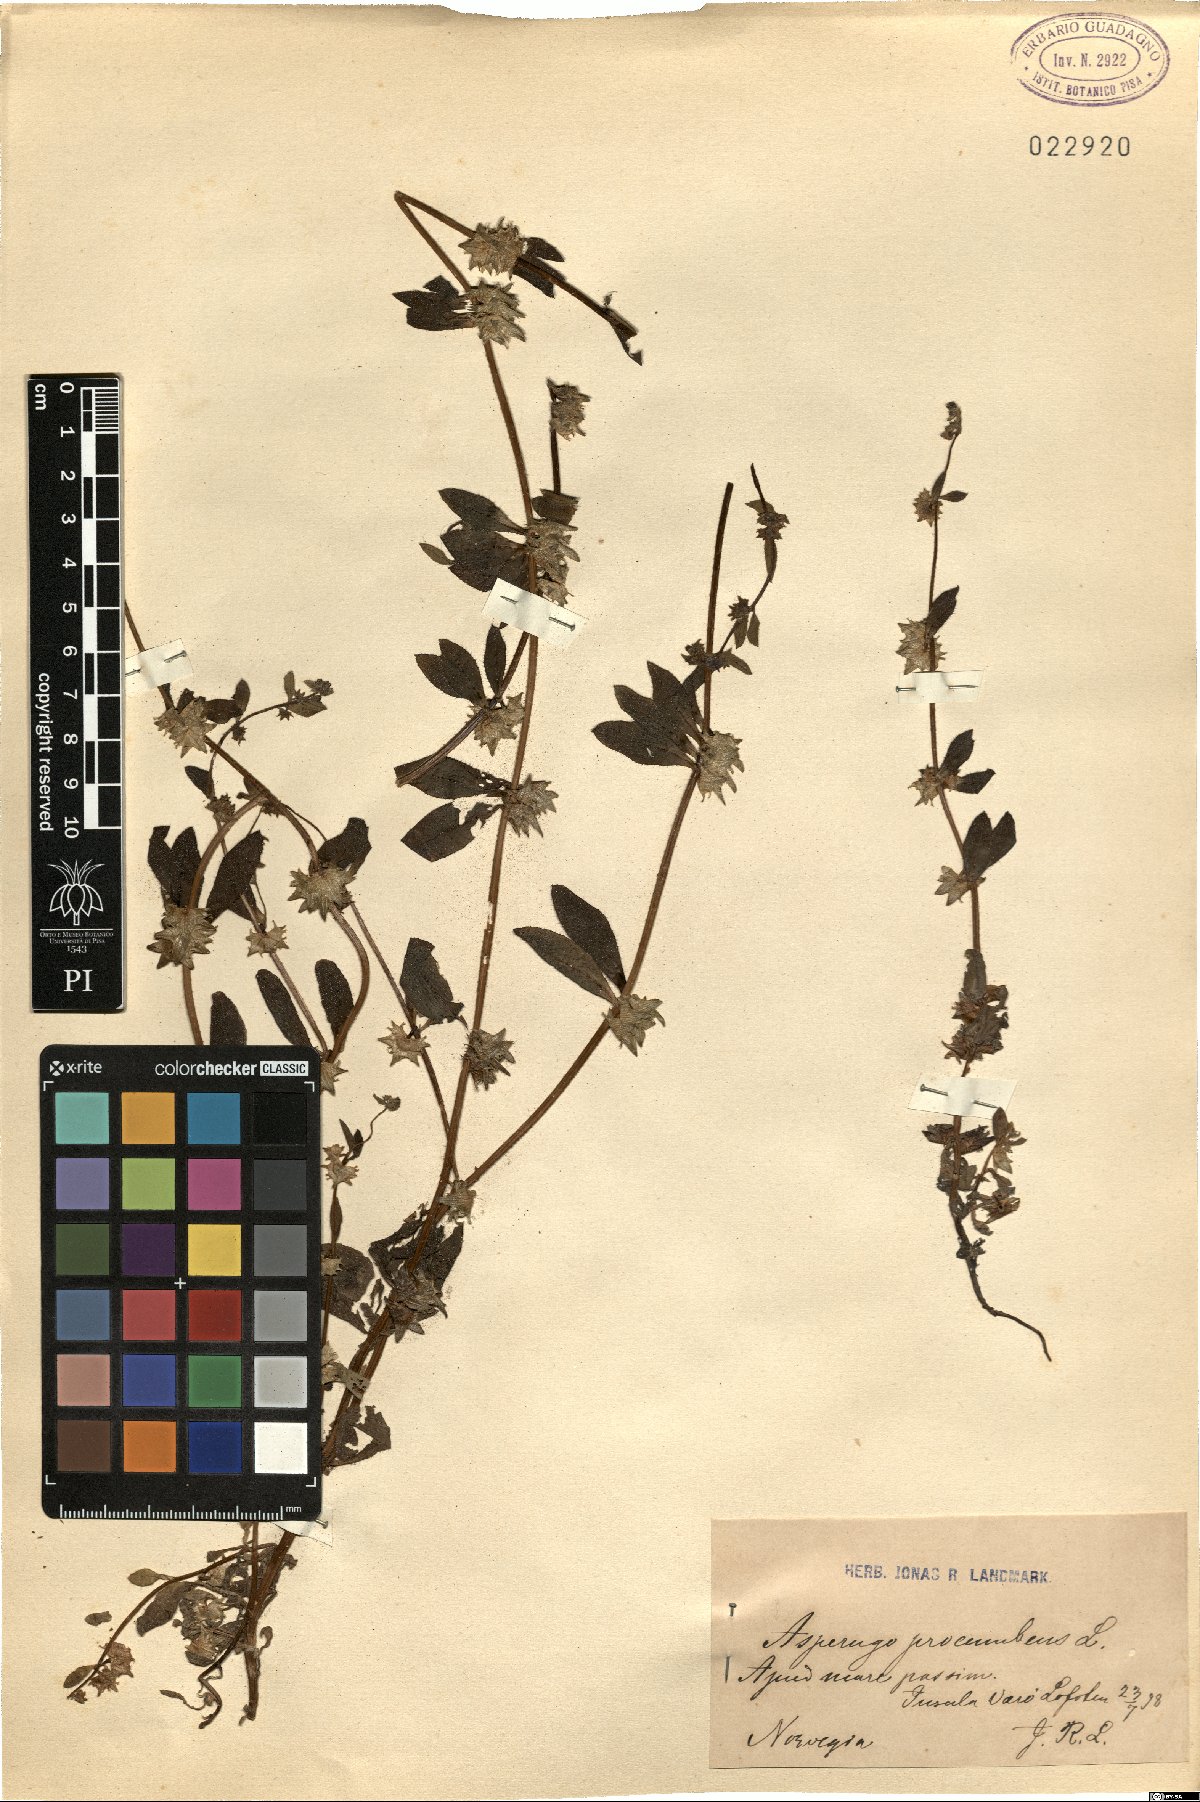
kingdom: Plantae
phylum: Tracheophyta
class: Magnoliopsida
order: Boraginales
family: Boraginaceae
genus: Asperugo
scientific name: Asperugo procumbens
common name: Madwort
